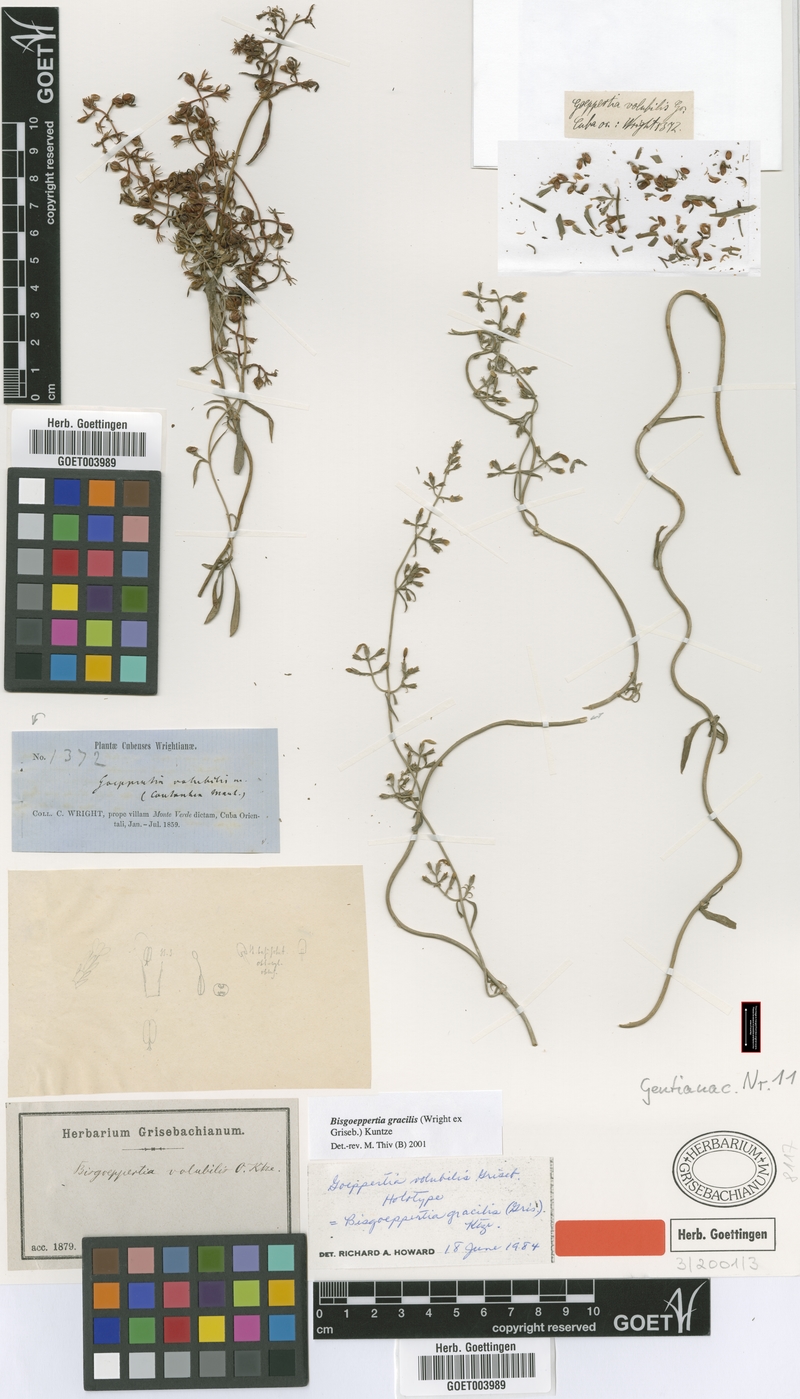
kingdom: Plantae
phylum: Tracheophyta
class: Magnoliopsida
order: Gentianales
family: Gentianaceae
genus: Bisgoeppertia
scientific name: Bisgoeppertia gracilis
